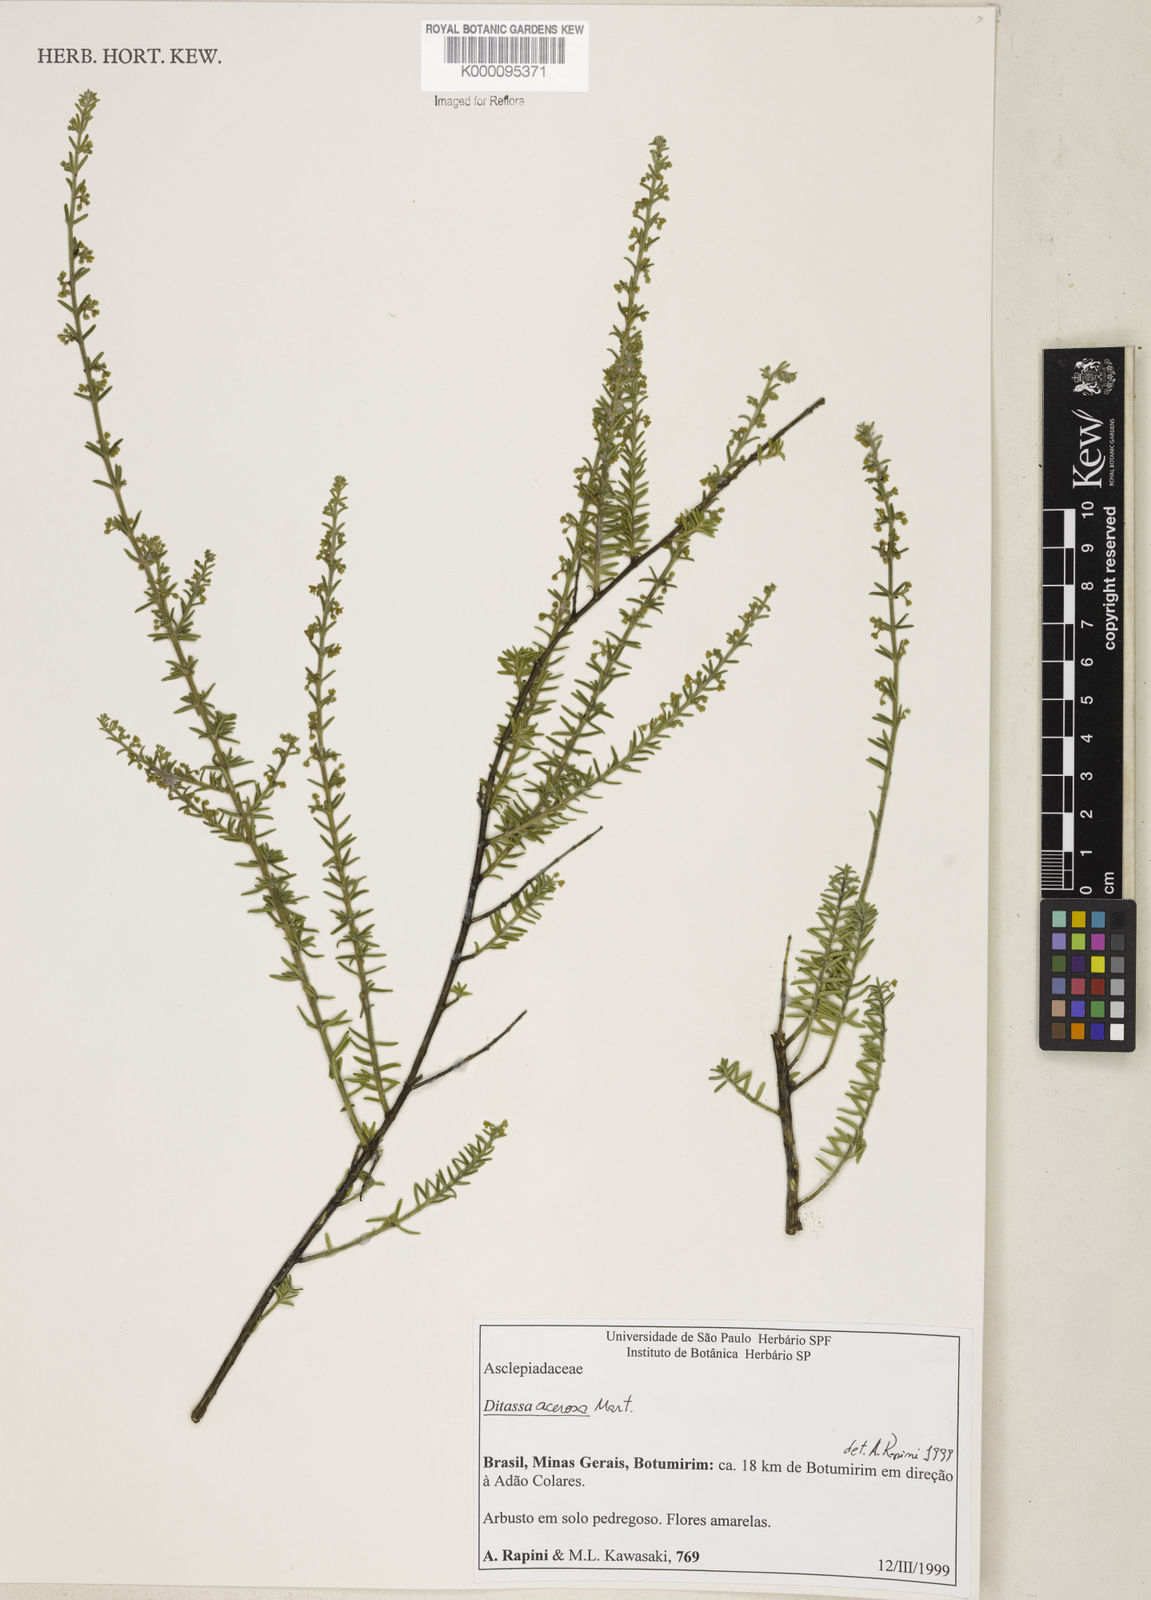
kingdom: Plantae
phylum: Tracheophyta
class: Magnoliopsida
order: Gentianales
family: Apocynaceae
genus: Minaria
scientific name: Minaria acerosa
